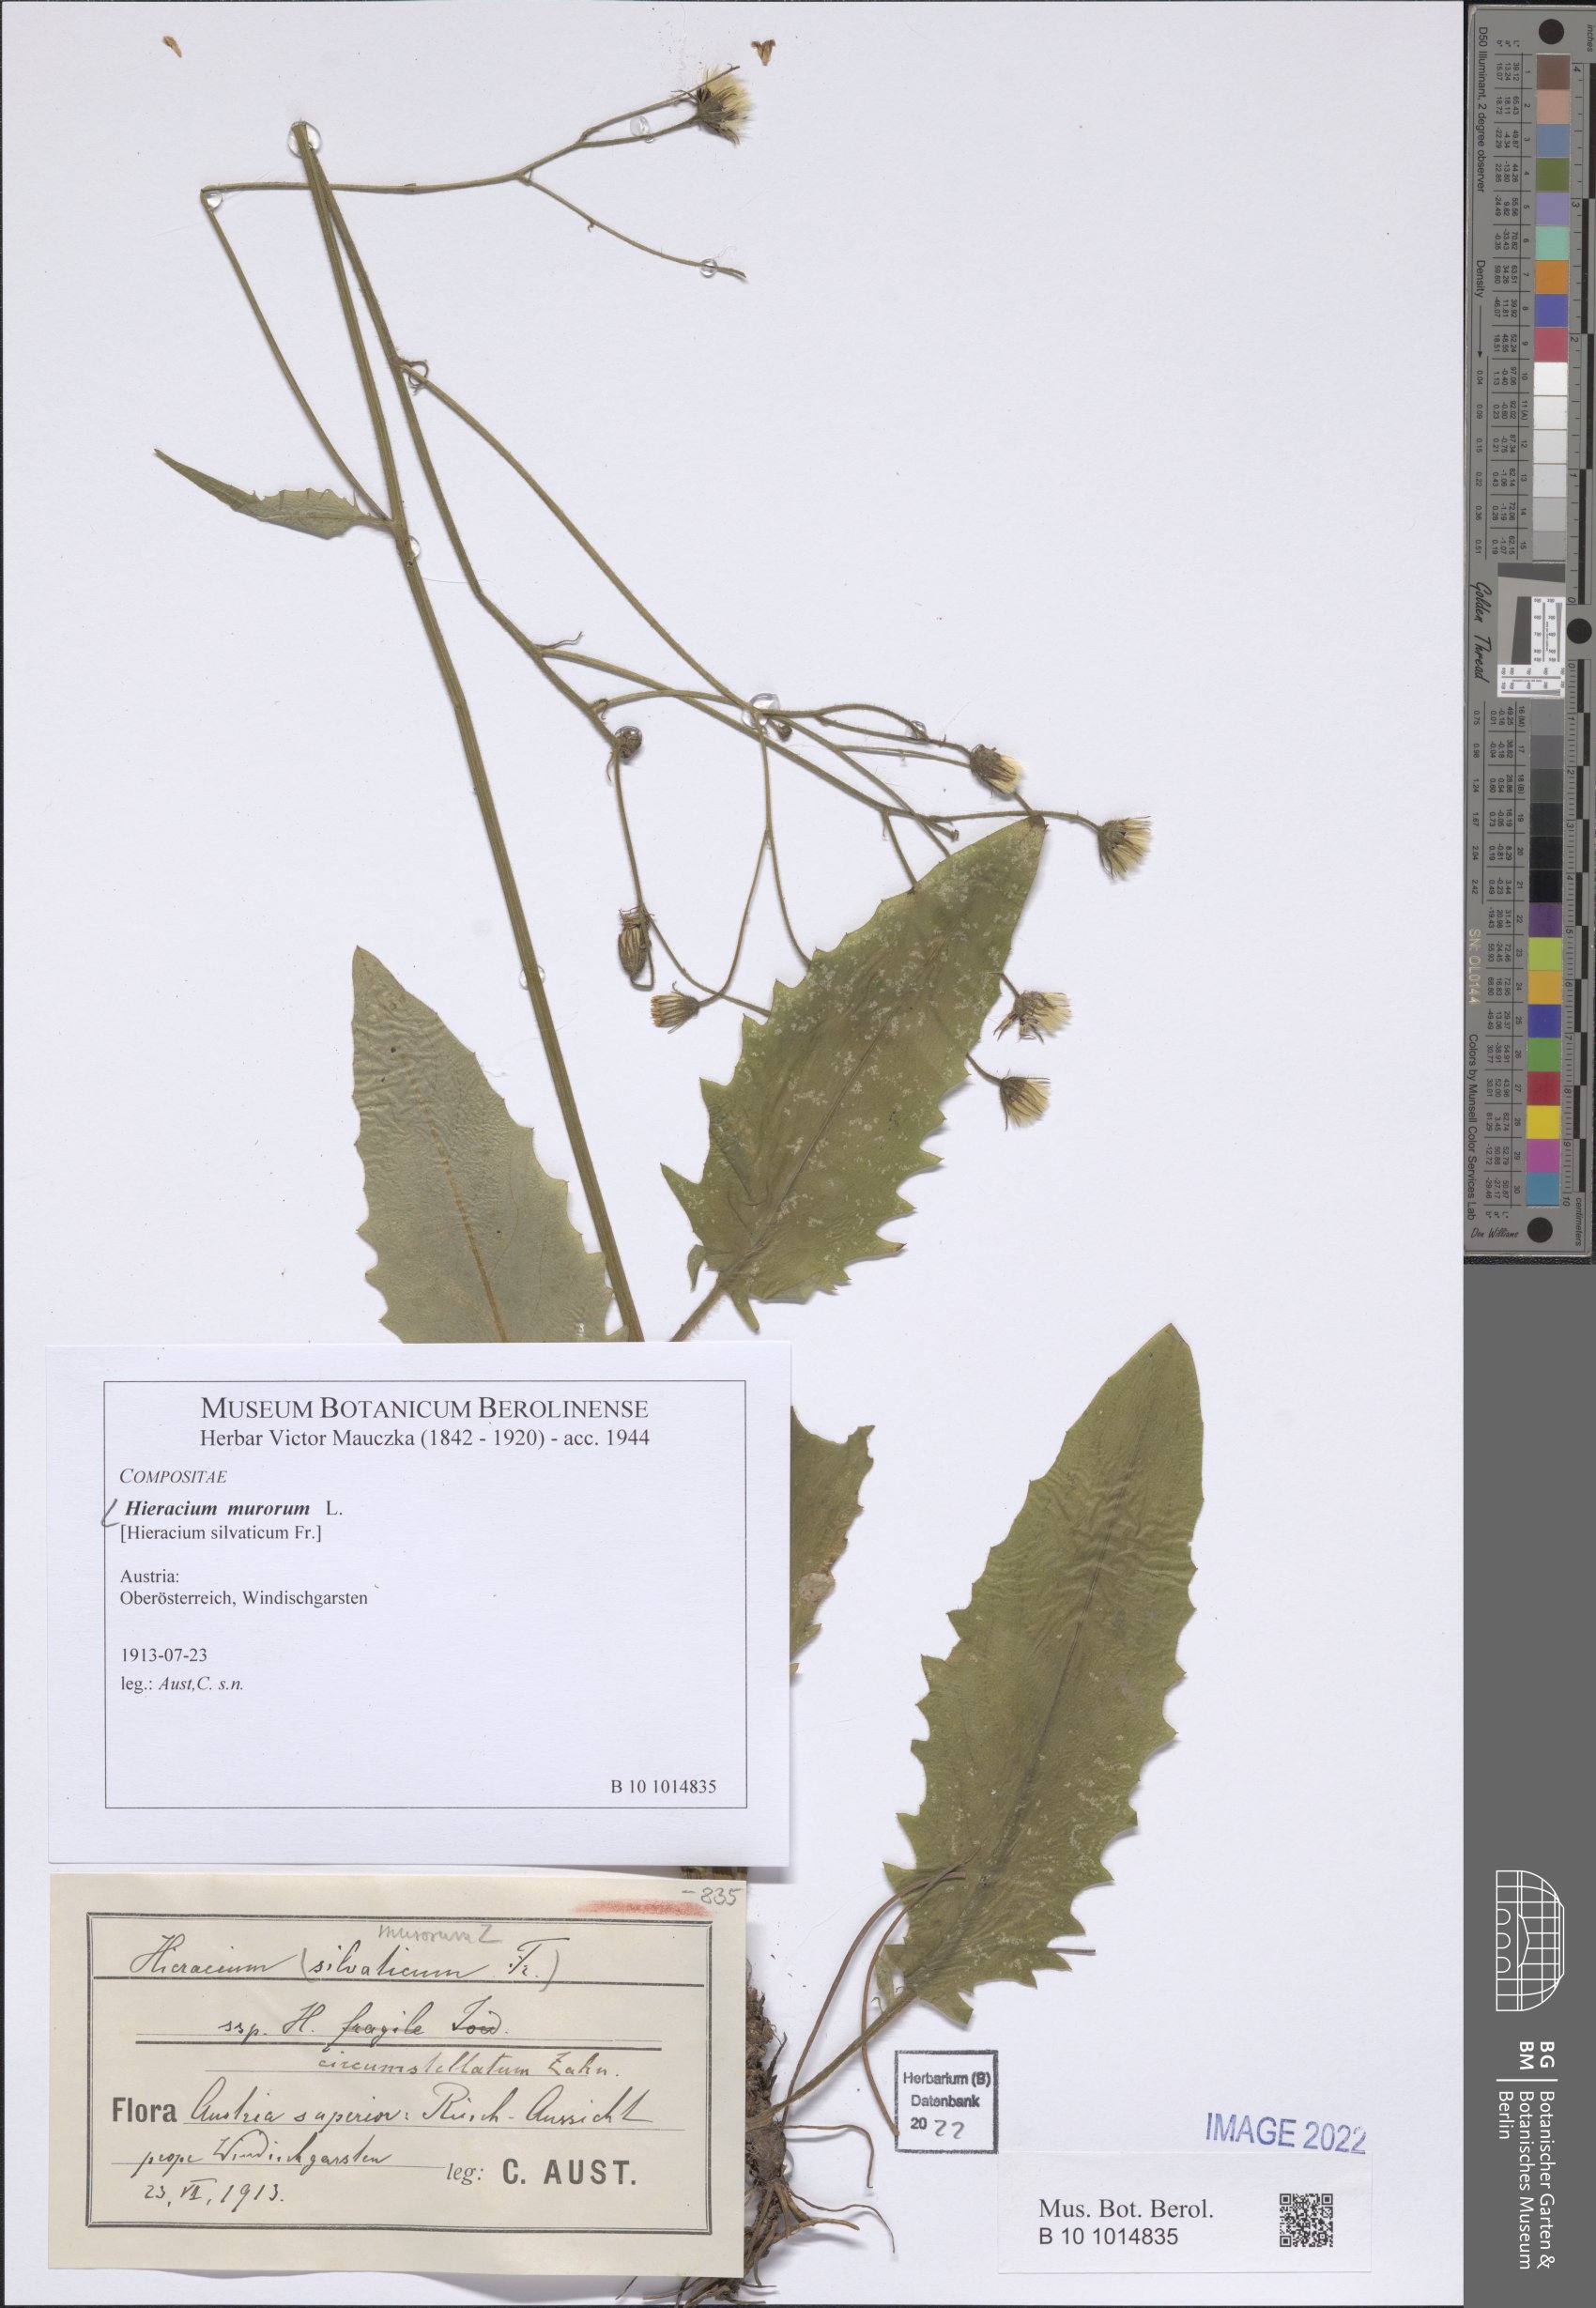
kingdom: Plantae
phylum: Tracheophyta
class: Magnoliopsida
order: Asterales
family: Asteraceae
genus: Hieracium
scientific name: Hieracium murorum
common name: Wall hawkweed
